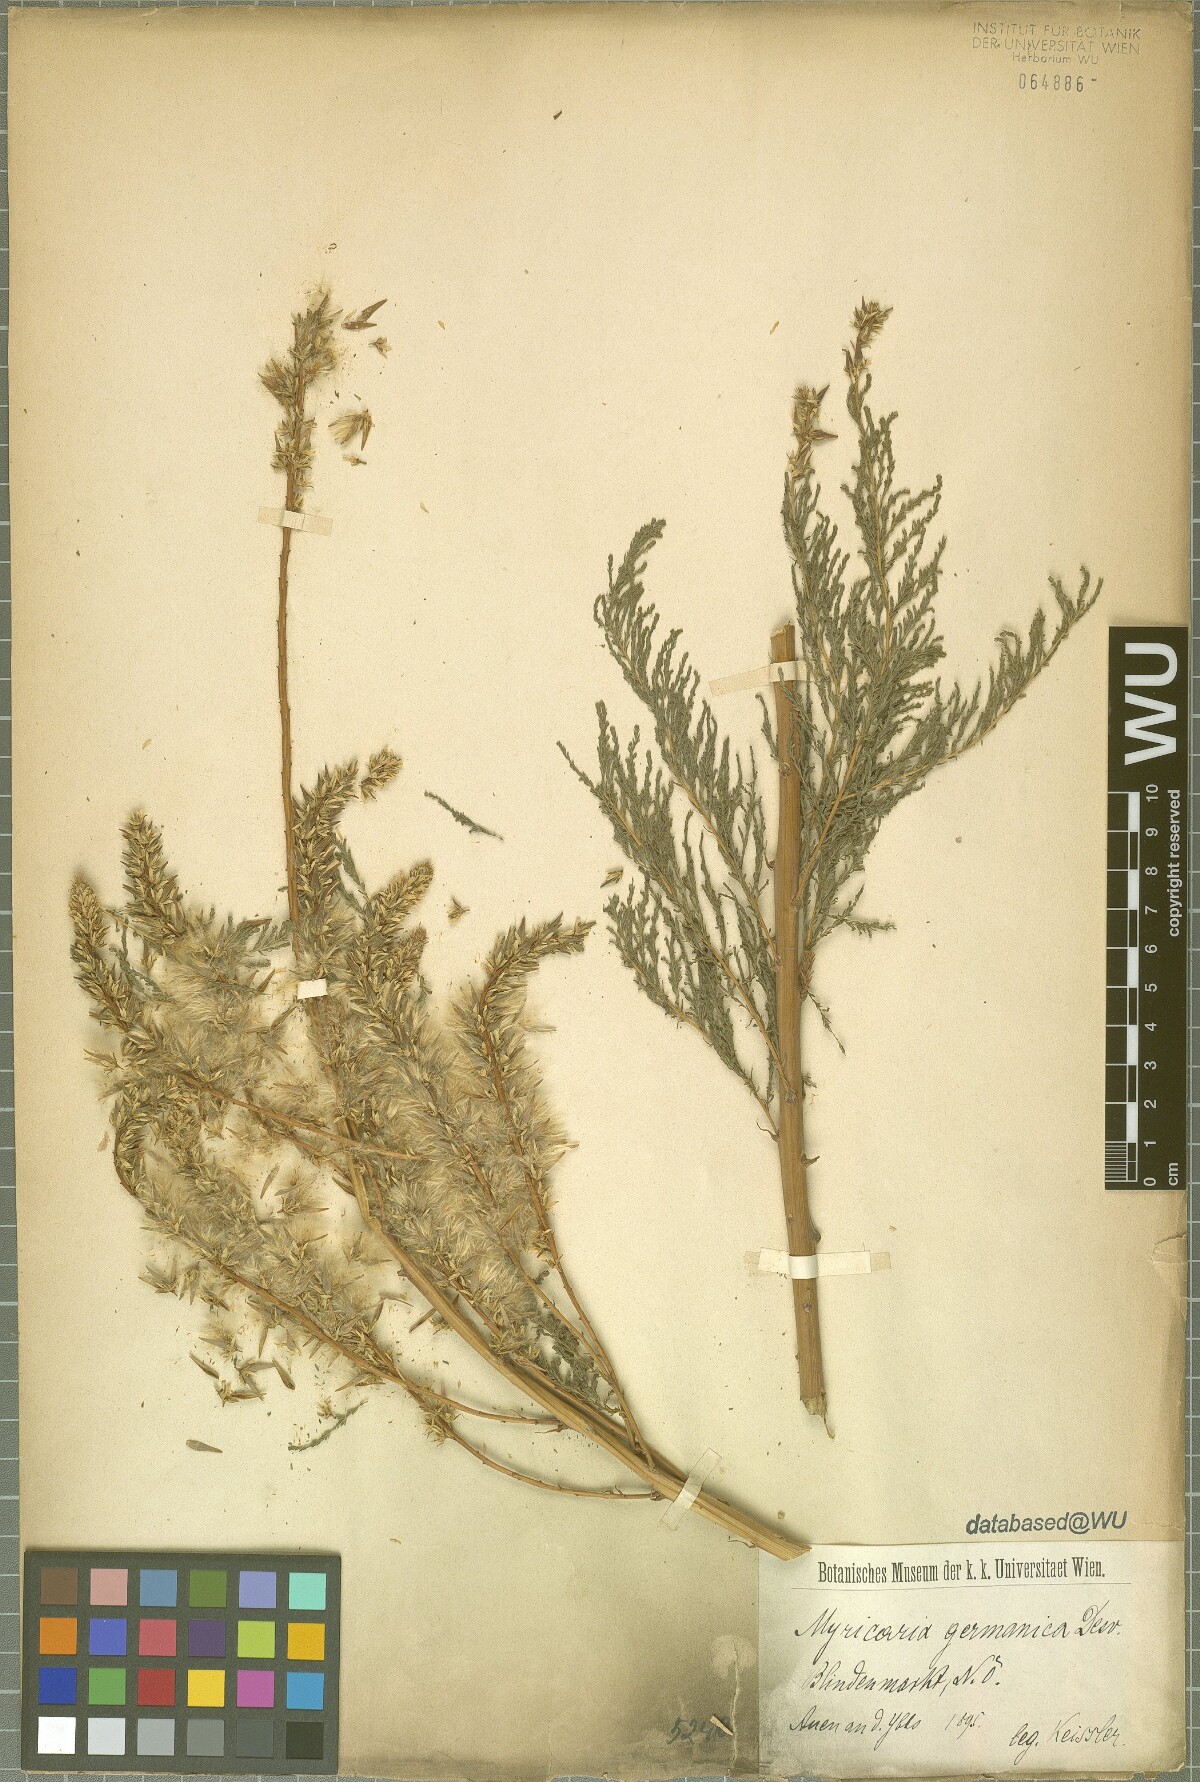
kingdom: Plantae
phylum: Tracheophyta
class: Magnoliopsida
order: Caryophyllales
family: Tamaricaceae
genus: Myricaria
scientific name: Myricaria germanica
